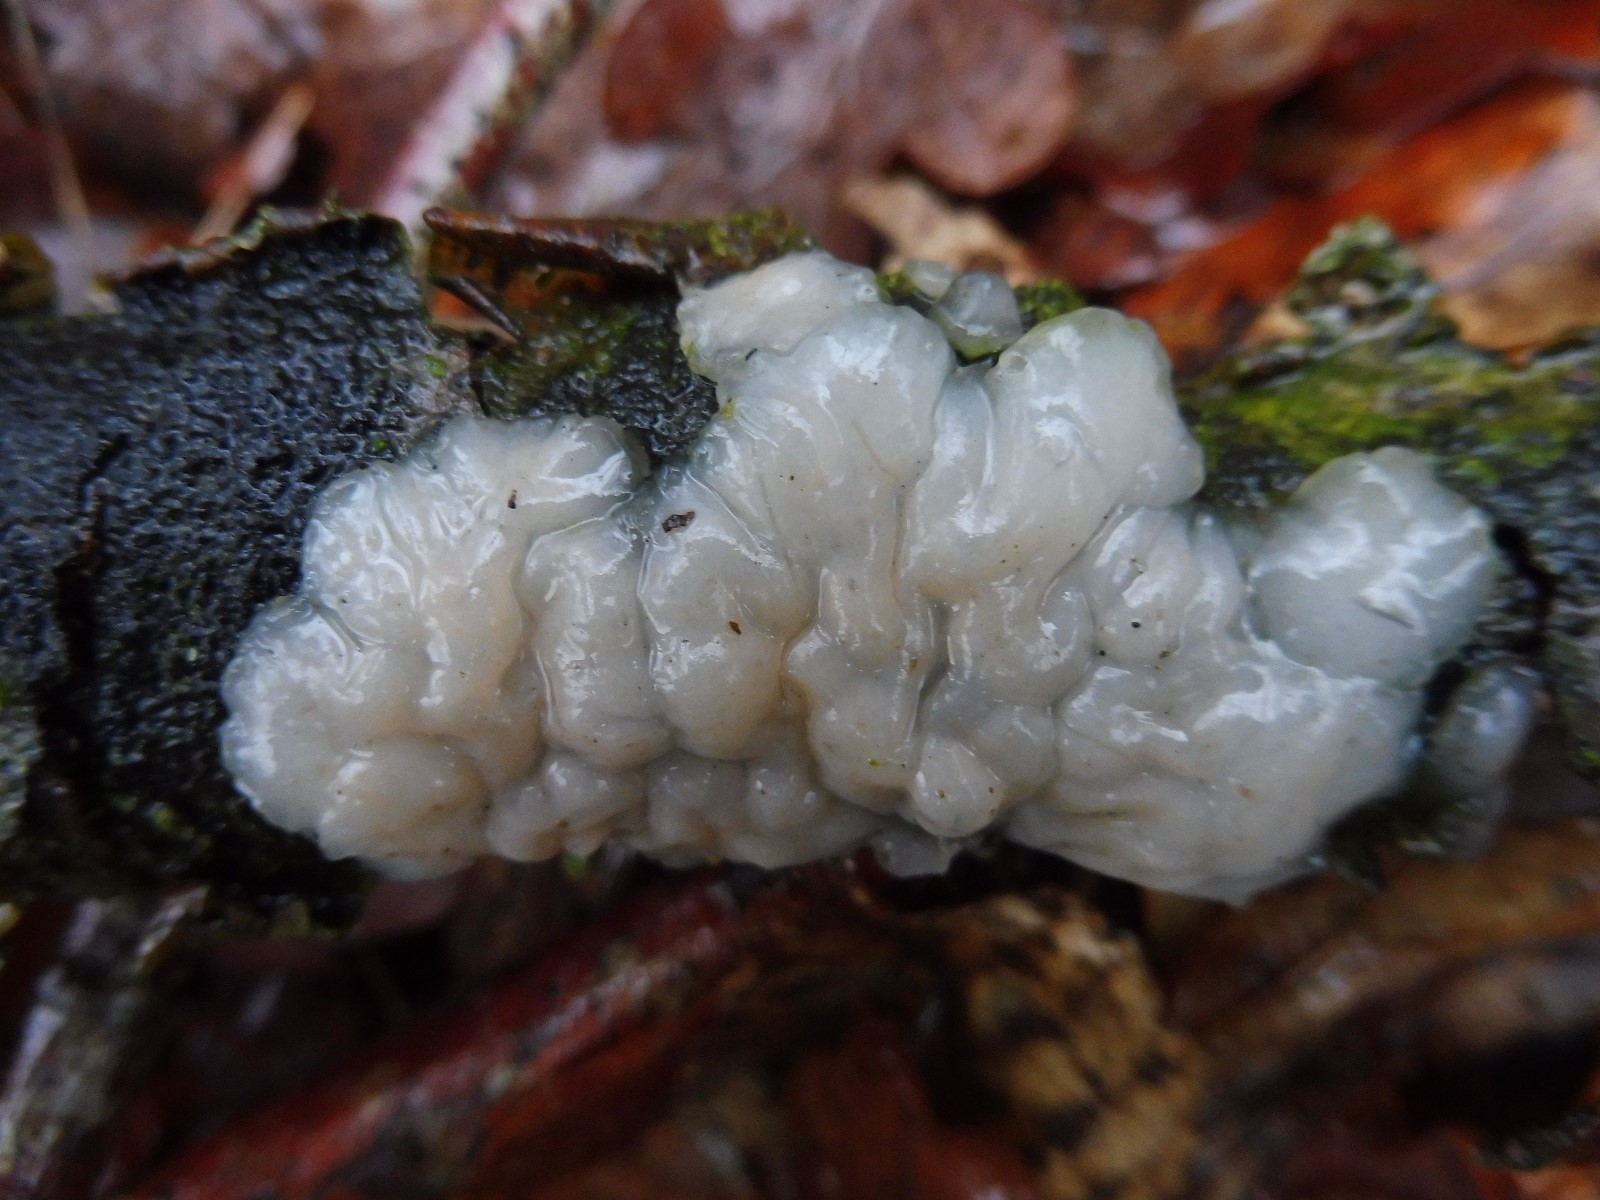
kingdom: Fungi
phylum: Basidiomycota
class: Agaricomycetes
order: Auriculariales
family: Auriculariaceae
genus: Exidia
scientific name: Exidia thuretiana
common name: hvidlig bævretop
